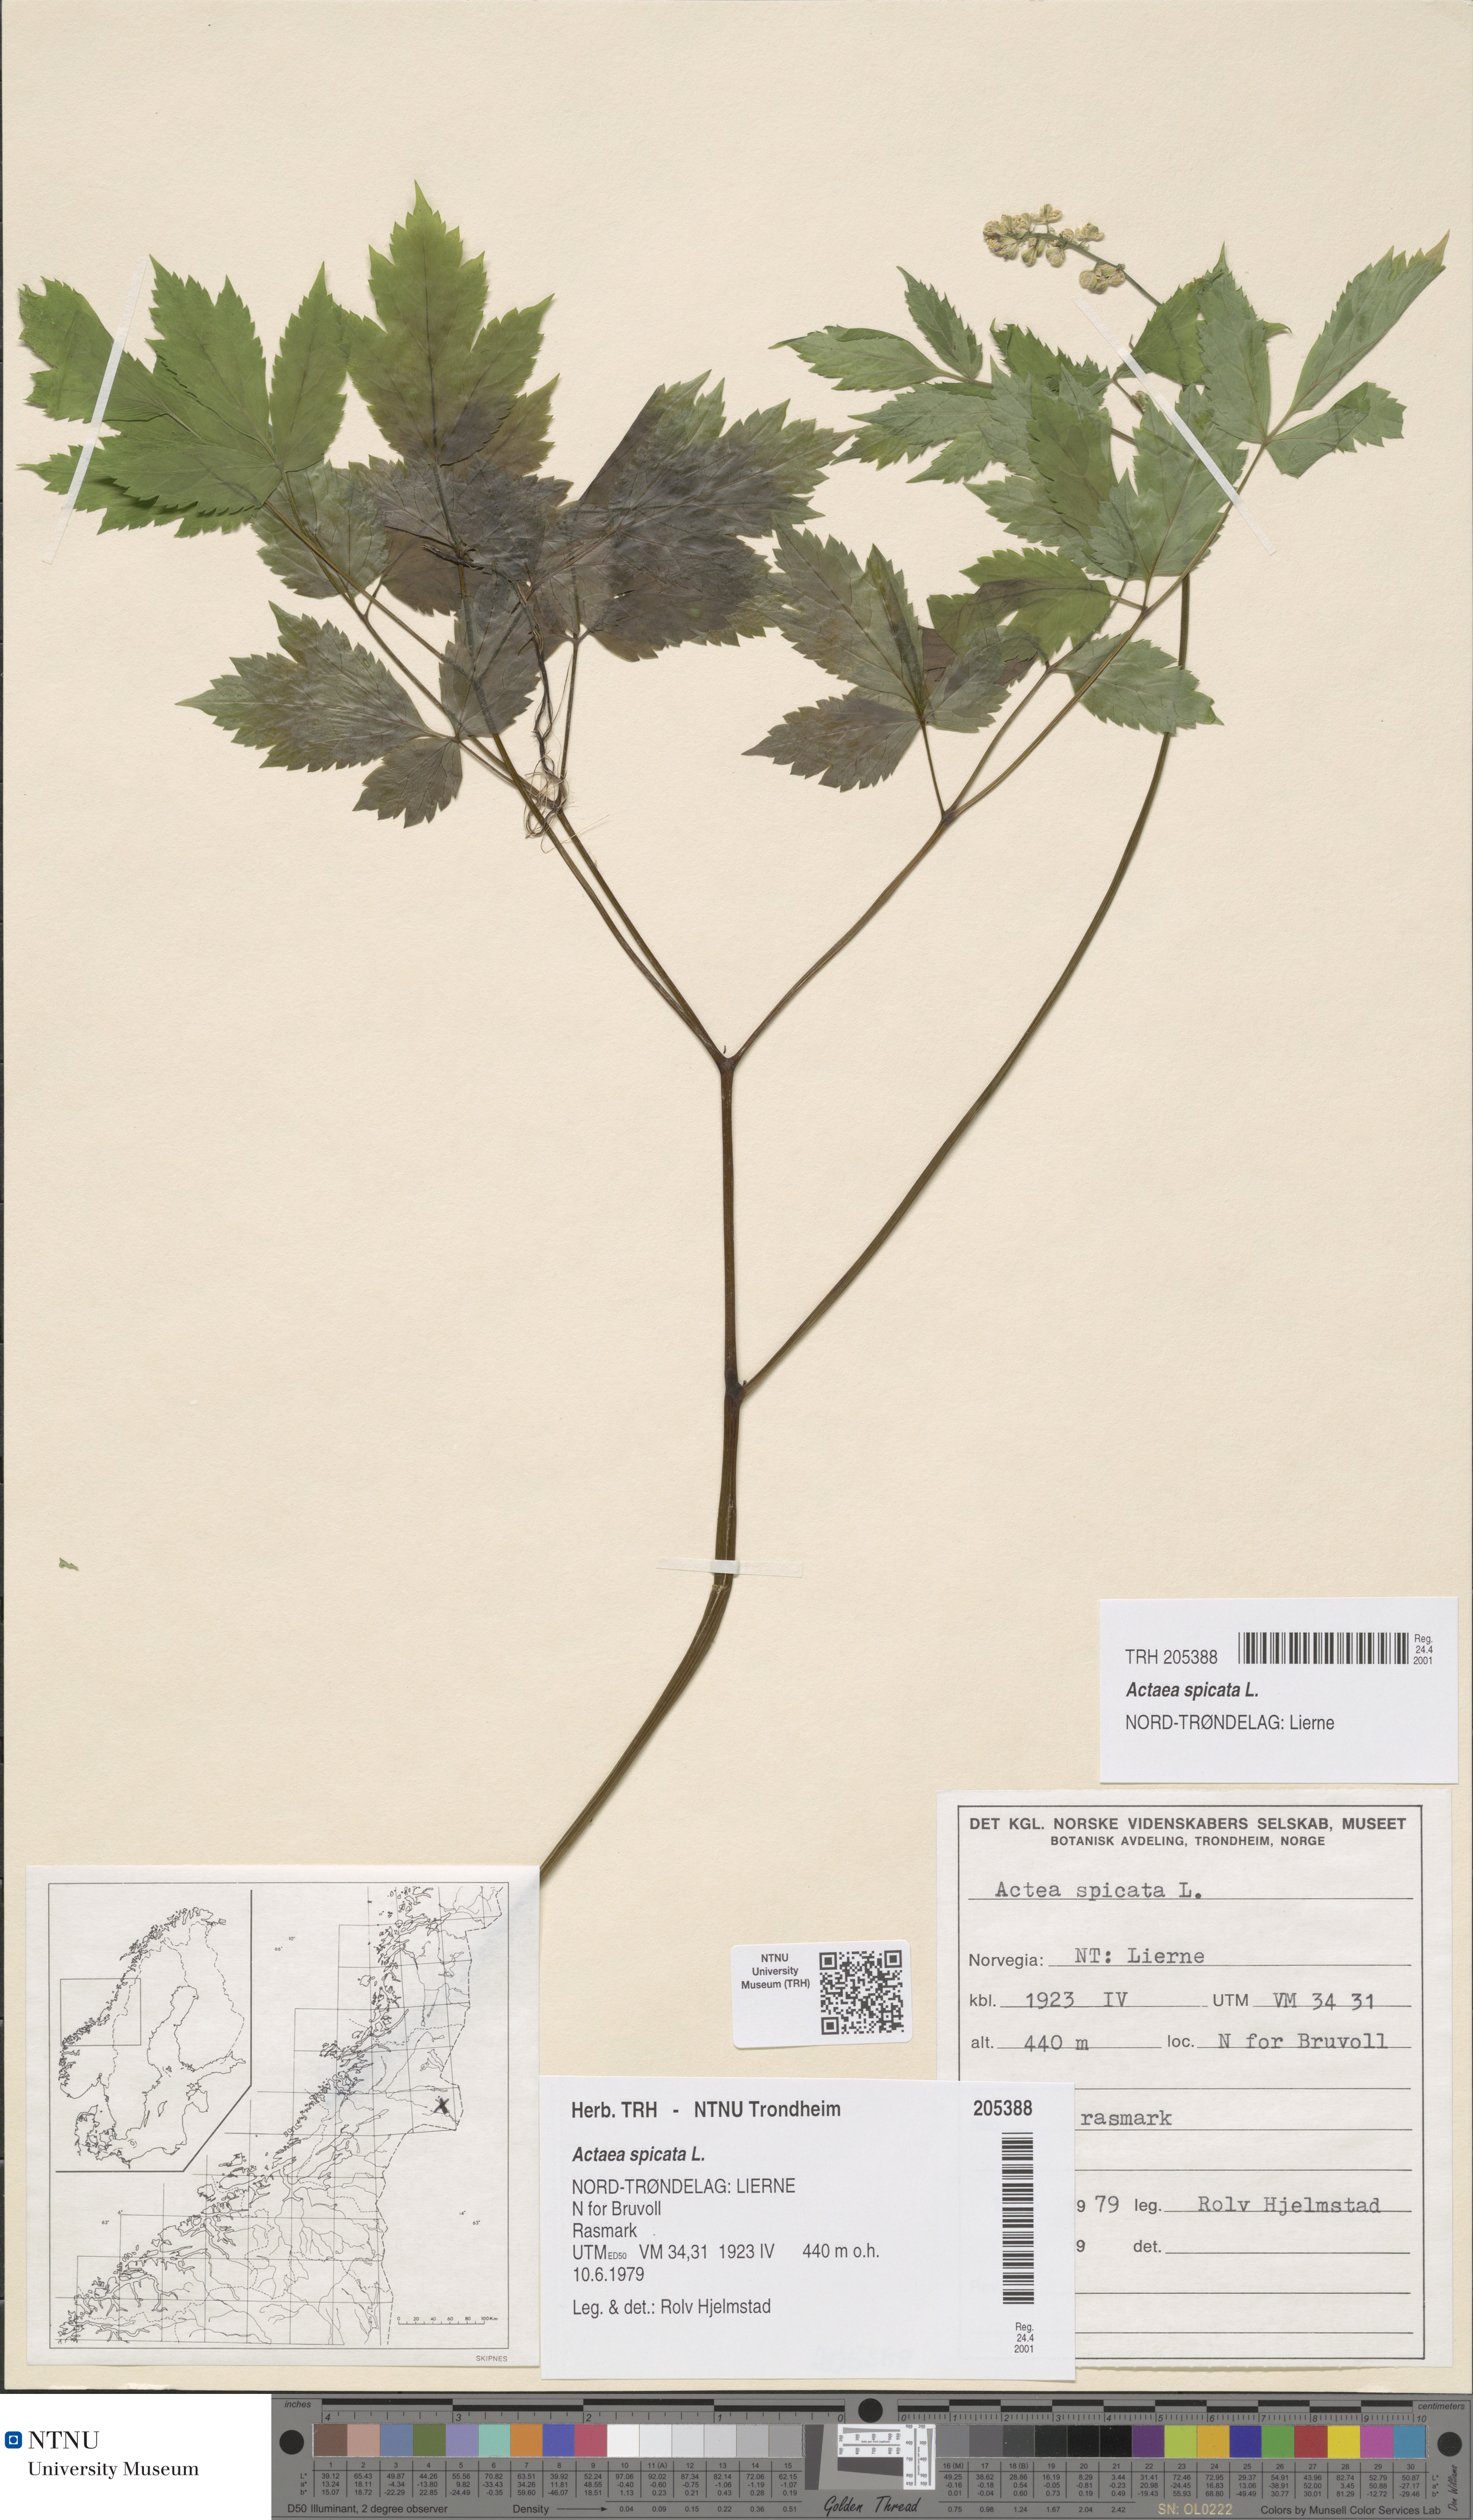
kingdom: Plantae
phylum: Tracheophyta
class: Magnoliopsida
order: Ranunculales
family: Ranunculaceae
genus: Actaea
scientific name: Actaea spicata
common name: Baneberry
